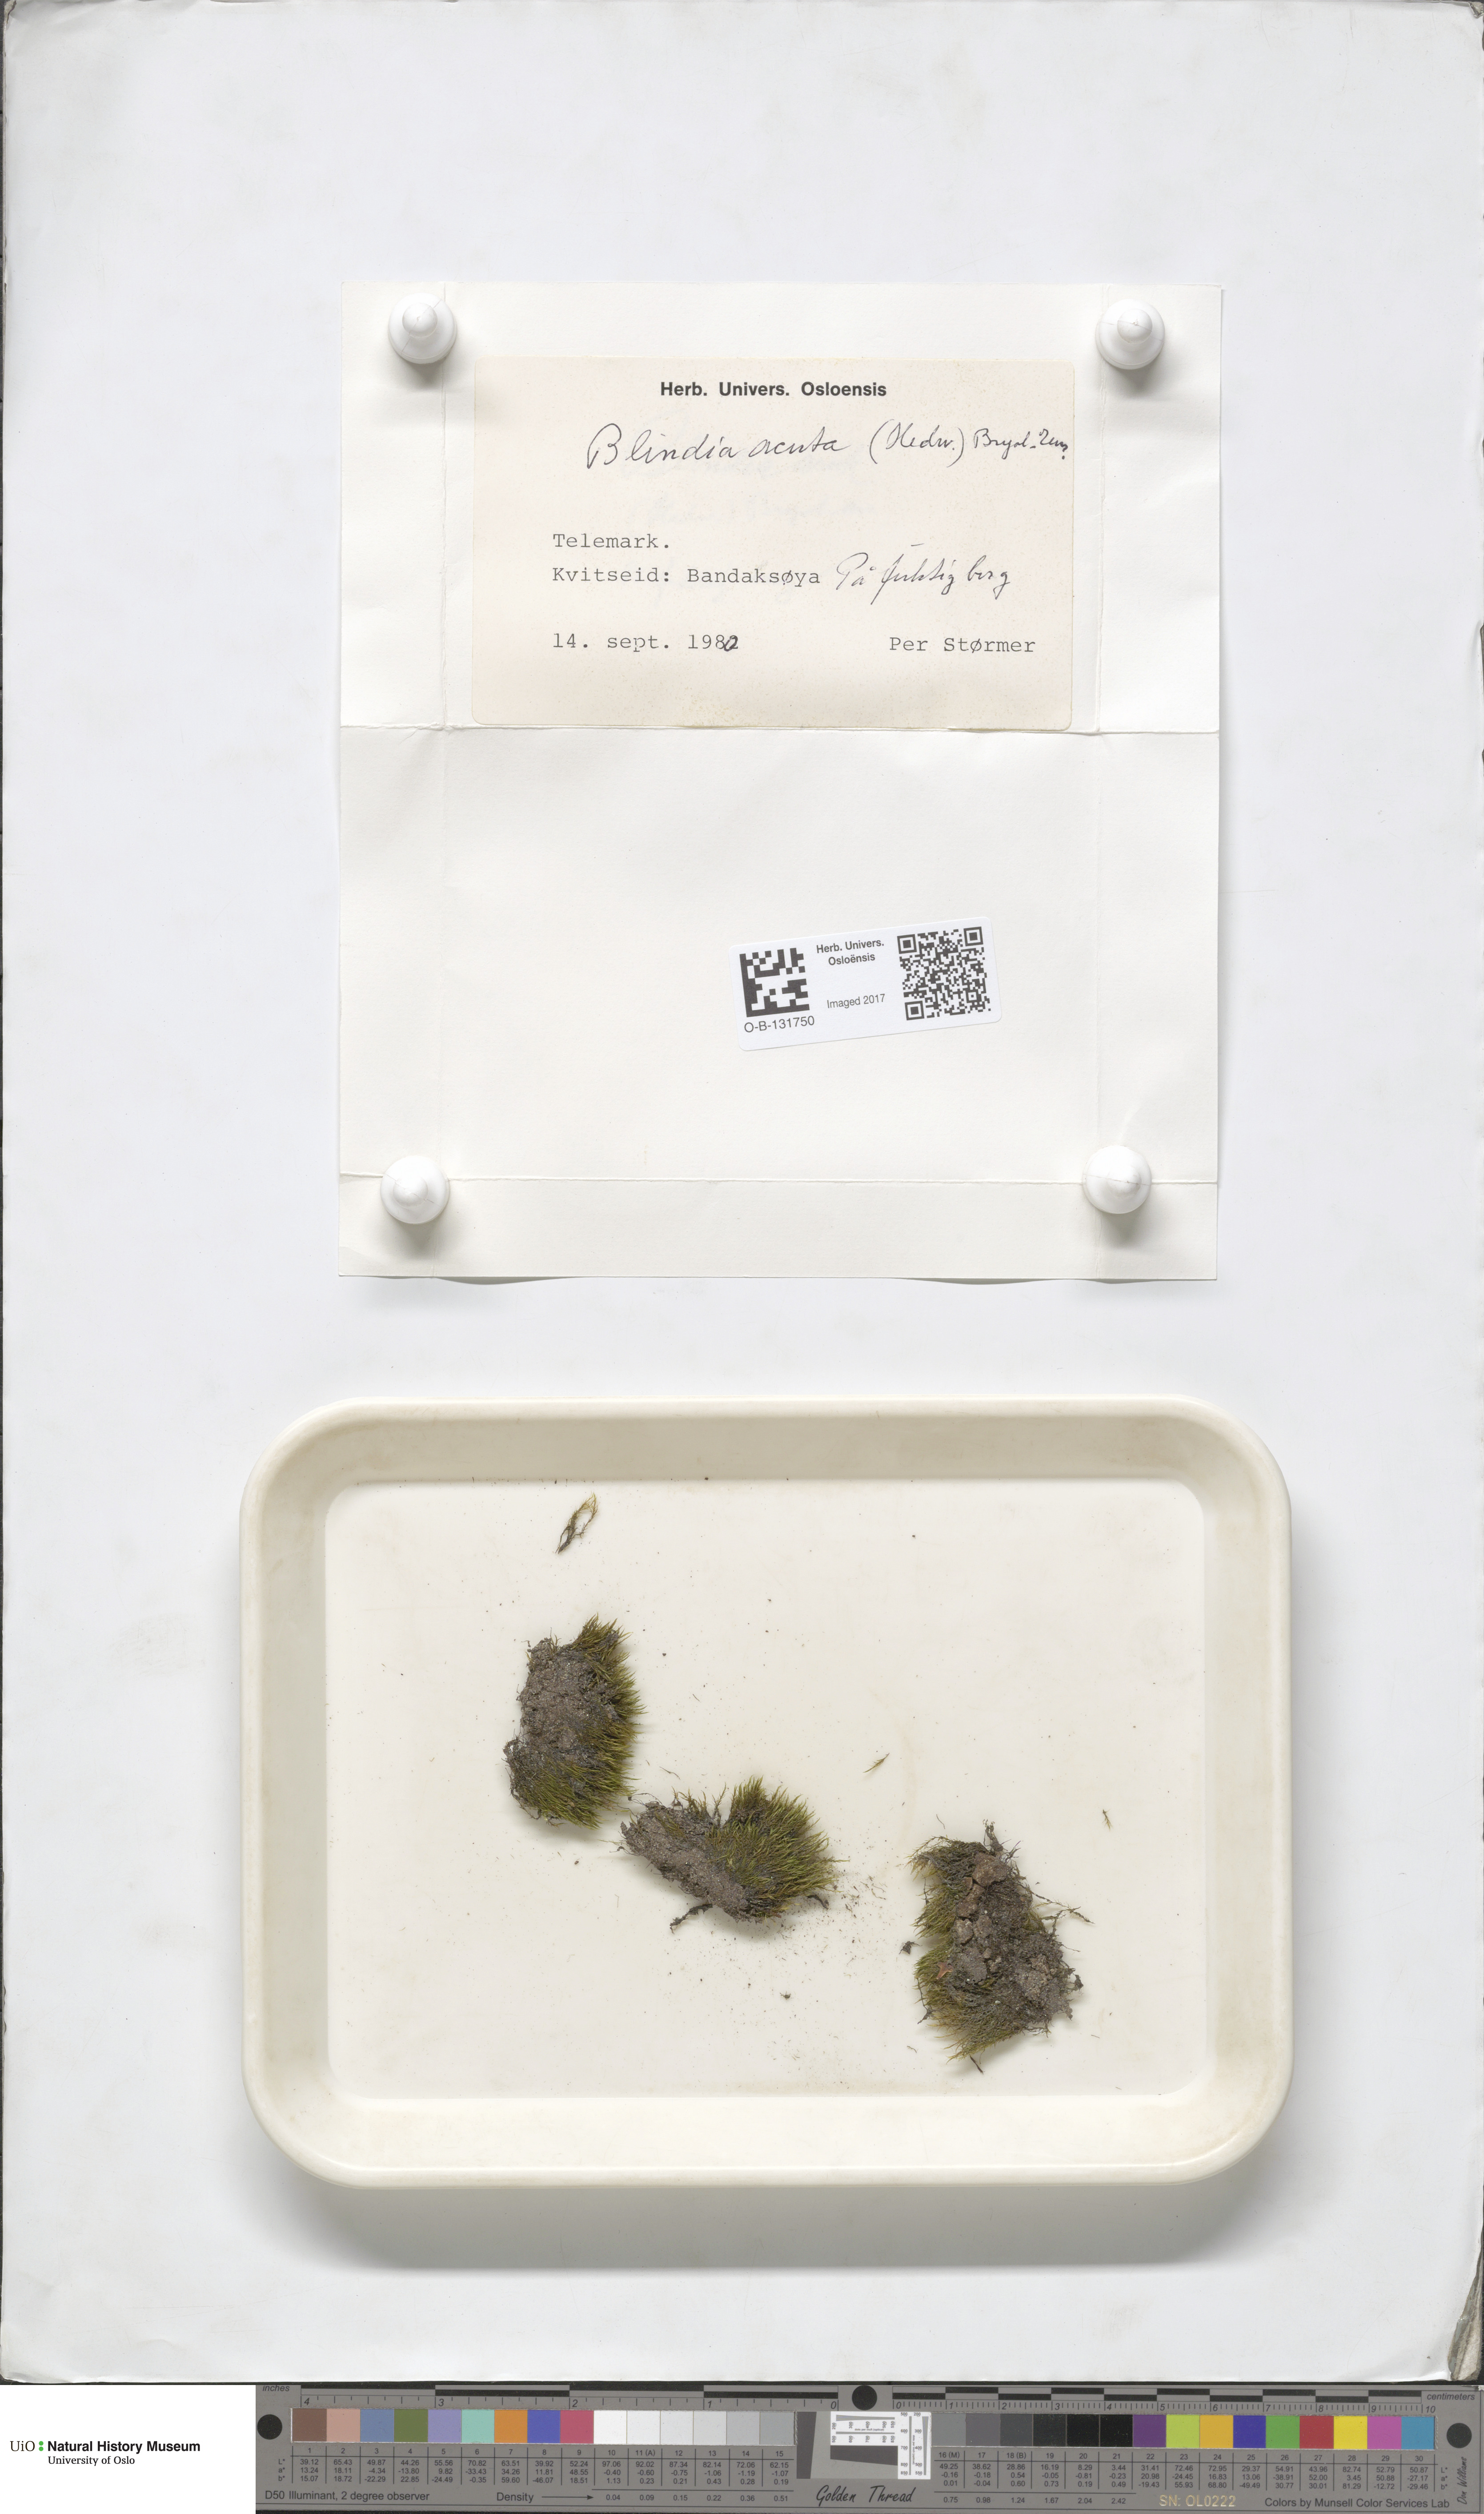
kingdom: Plantae
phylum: Bryophyta
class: Bryopsida
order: Grimmiales
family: Seligeriaceae
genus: Blindia
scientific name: Blindia acuta
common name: Sharp-leaved blind's moss
